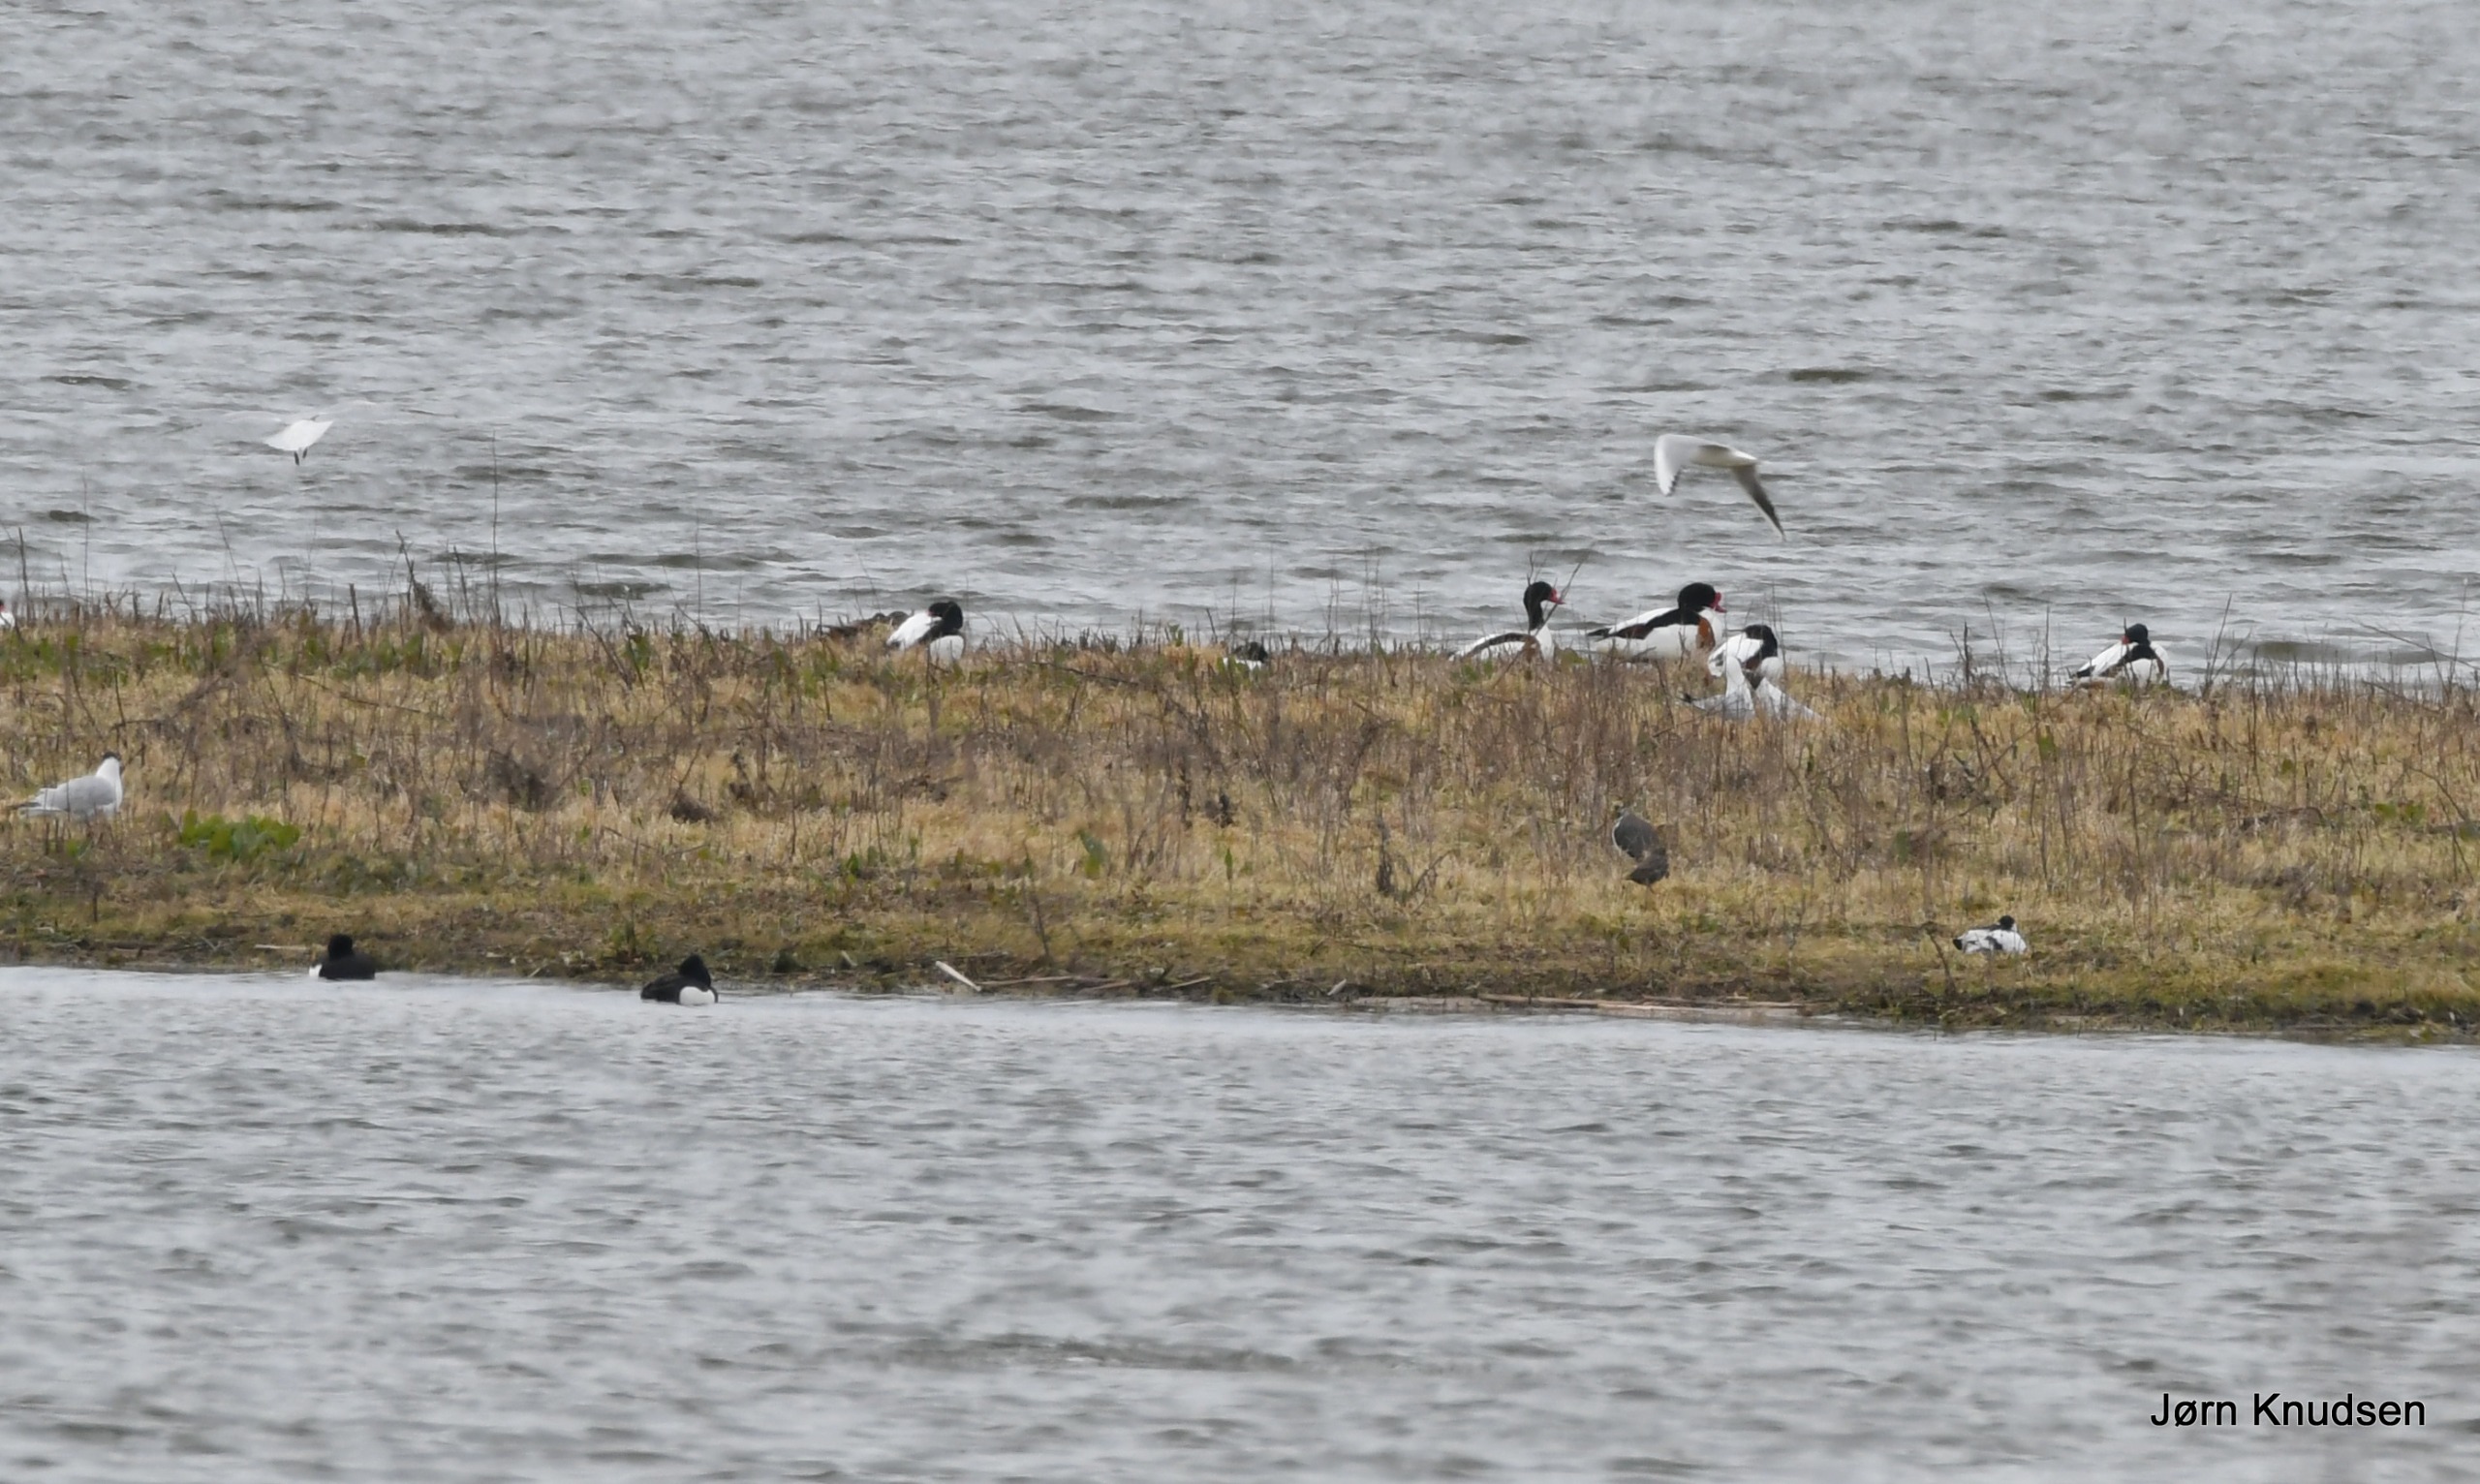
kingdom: Animalia
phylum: Chordata
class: Aves
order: Charadriiformes
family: Charadriidae
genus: Vanellus
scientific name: Vanellus vanellus
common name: Vibe
